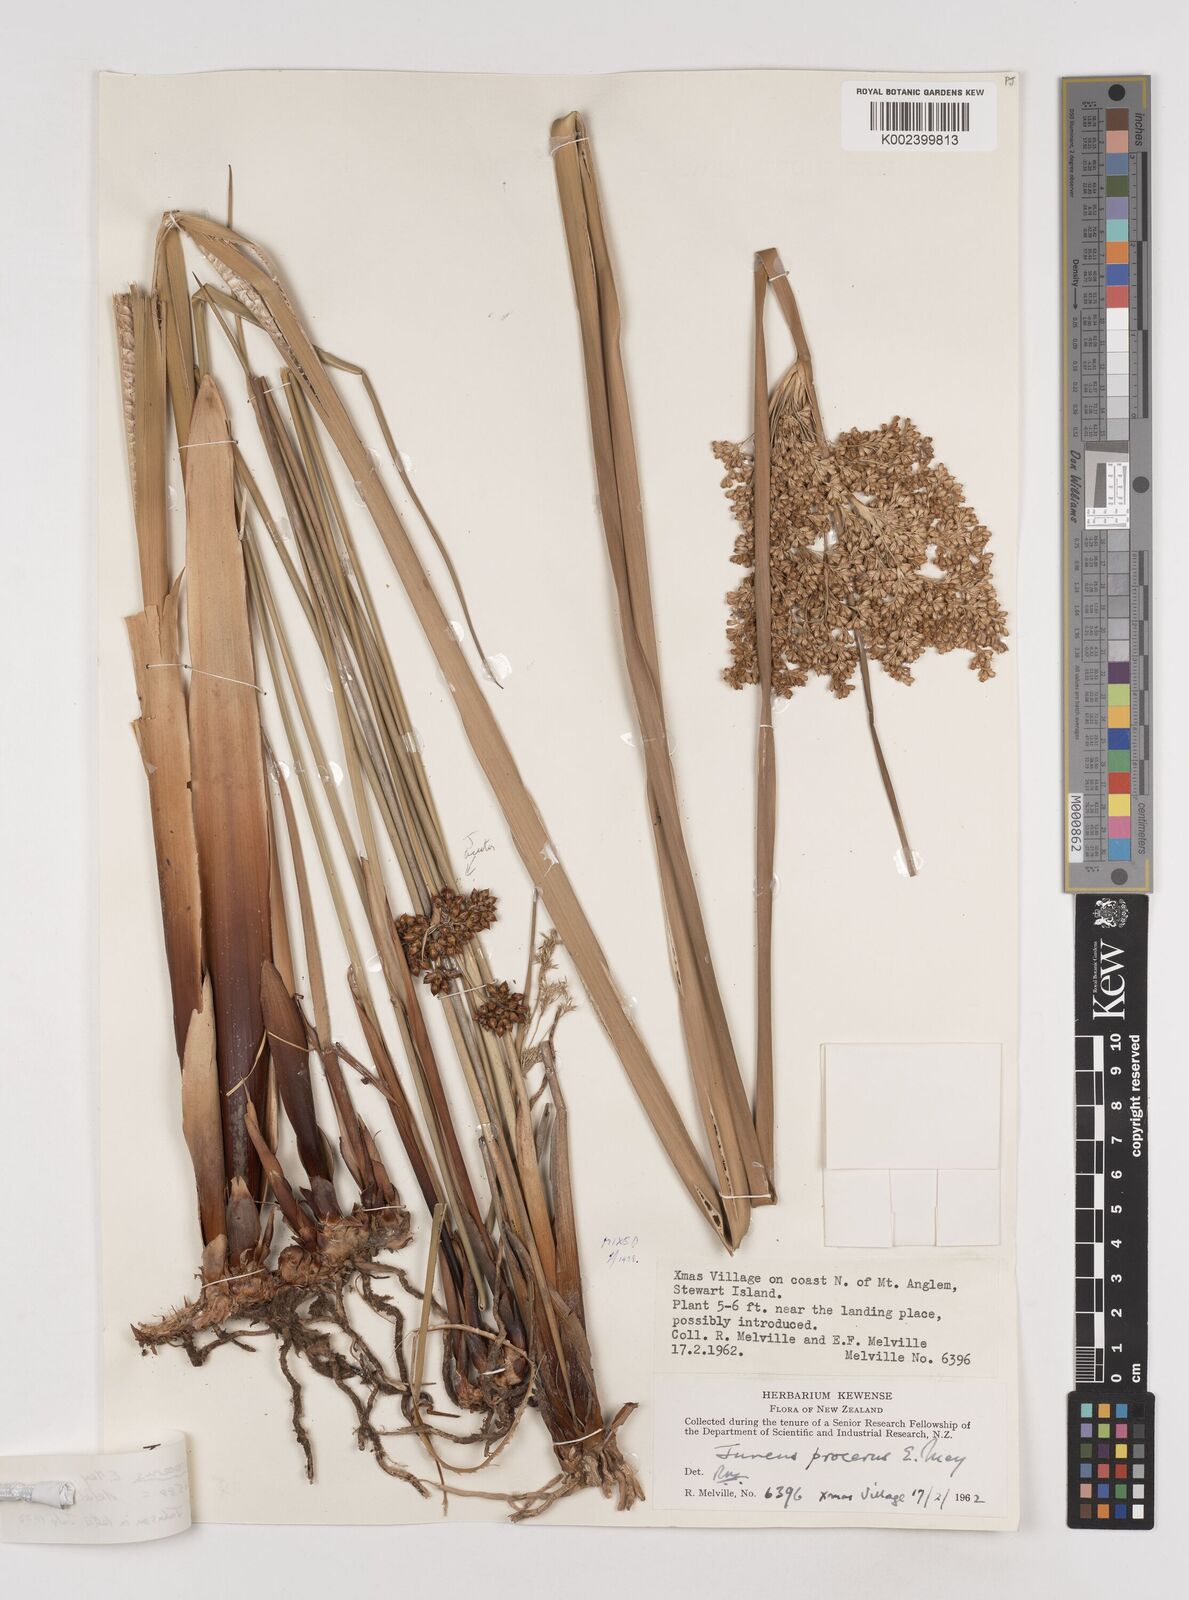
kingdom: Plantae
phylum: Tracheophyta
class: Liliopsida
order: Poales
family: Juncaceae
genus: Juncus
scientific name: Juncus procerus
